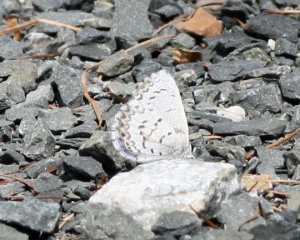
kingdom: Animalia
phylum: Arthropoda
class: Insecta
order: Lepidoptera
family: Lycaenidae
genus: Celastrina
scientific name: Celastrina lucia
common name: Northern Spring Azure
